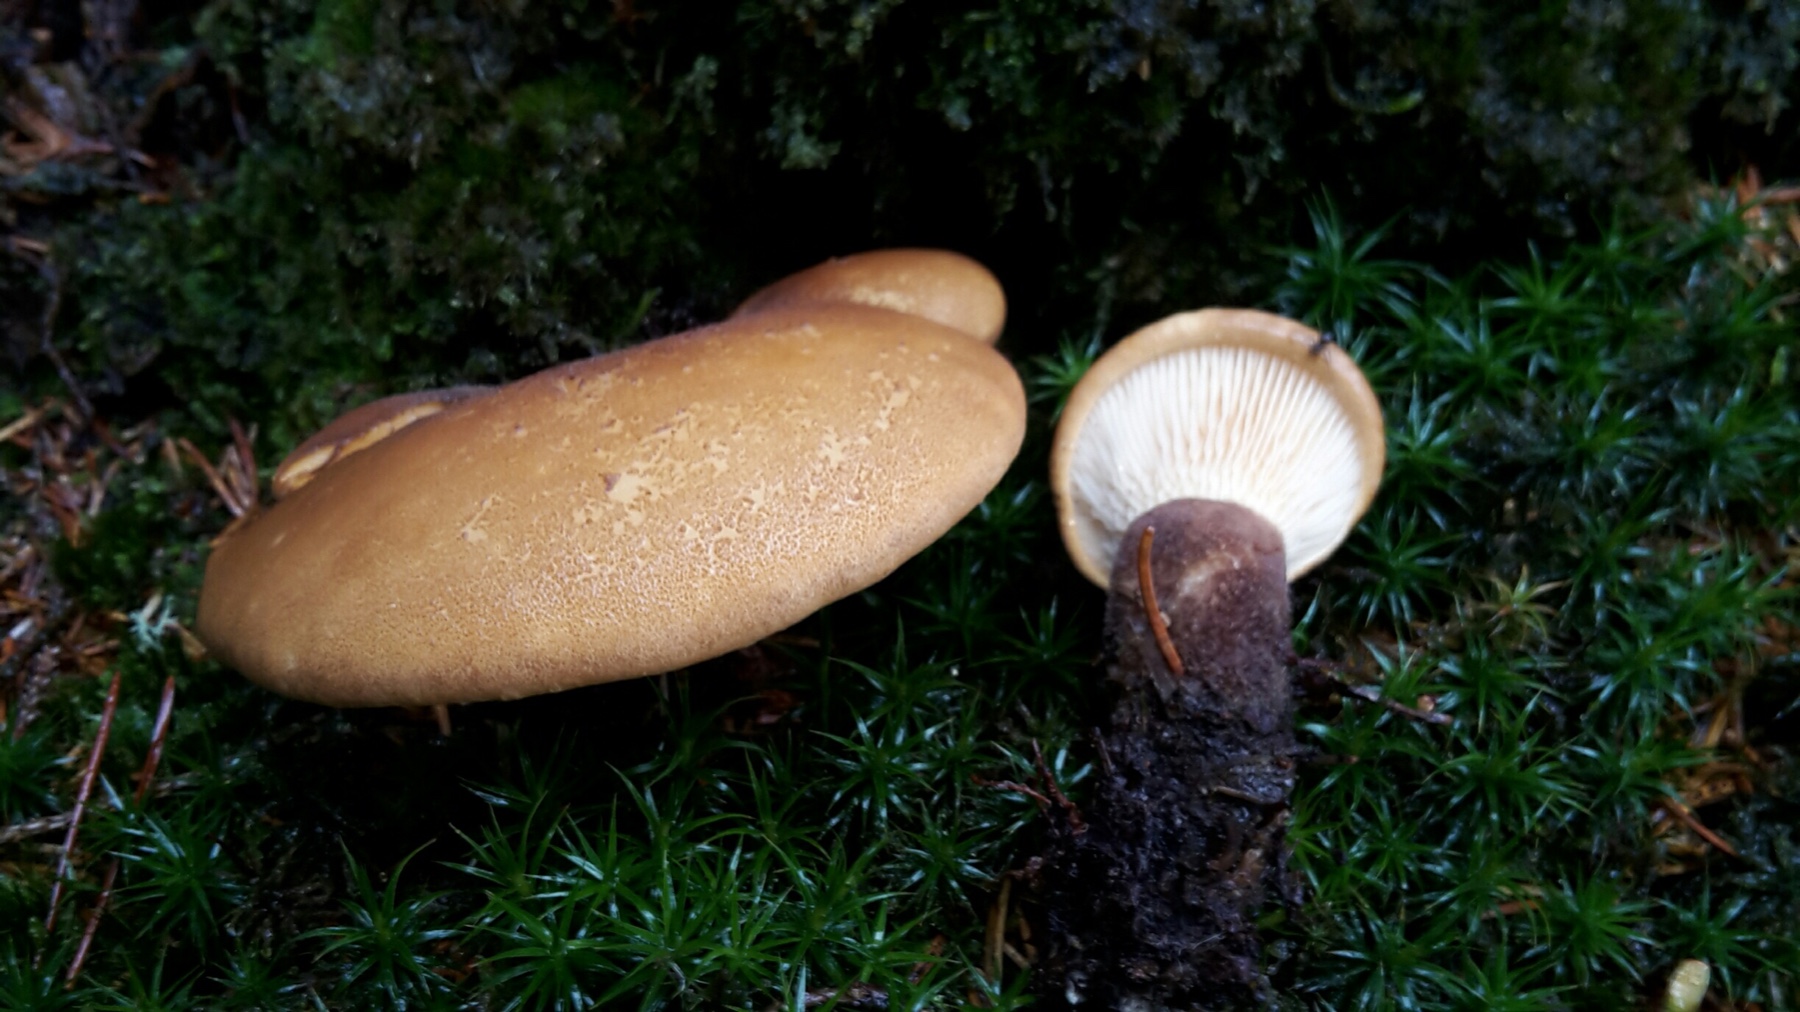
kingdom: Fungi
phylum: Basidiomycota
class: Agaricomycetes
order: Boletales
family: Tapinellaceae
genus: Tapinella
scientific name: Tapinella atrotomentosa
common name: sortfiltet viftesvamp
